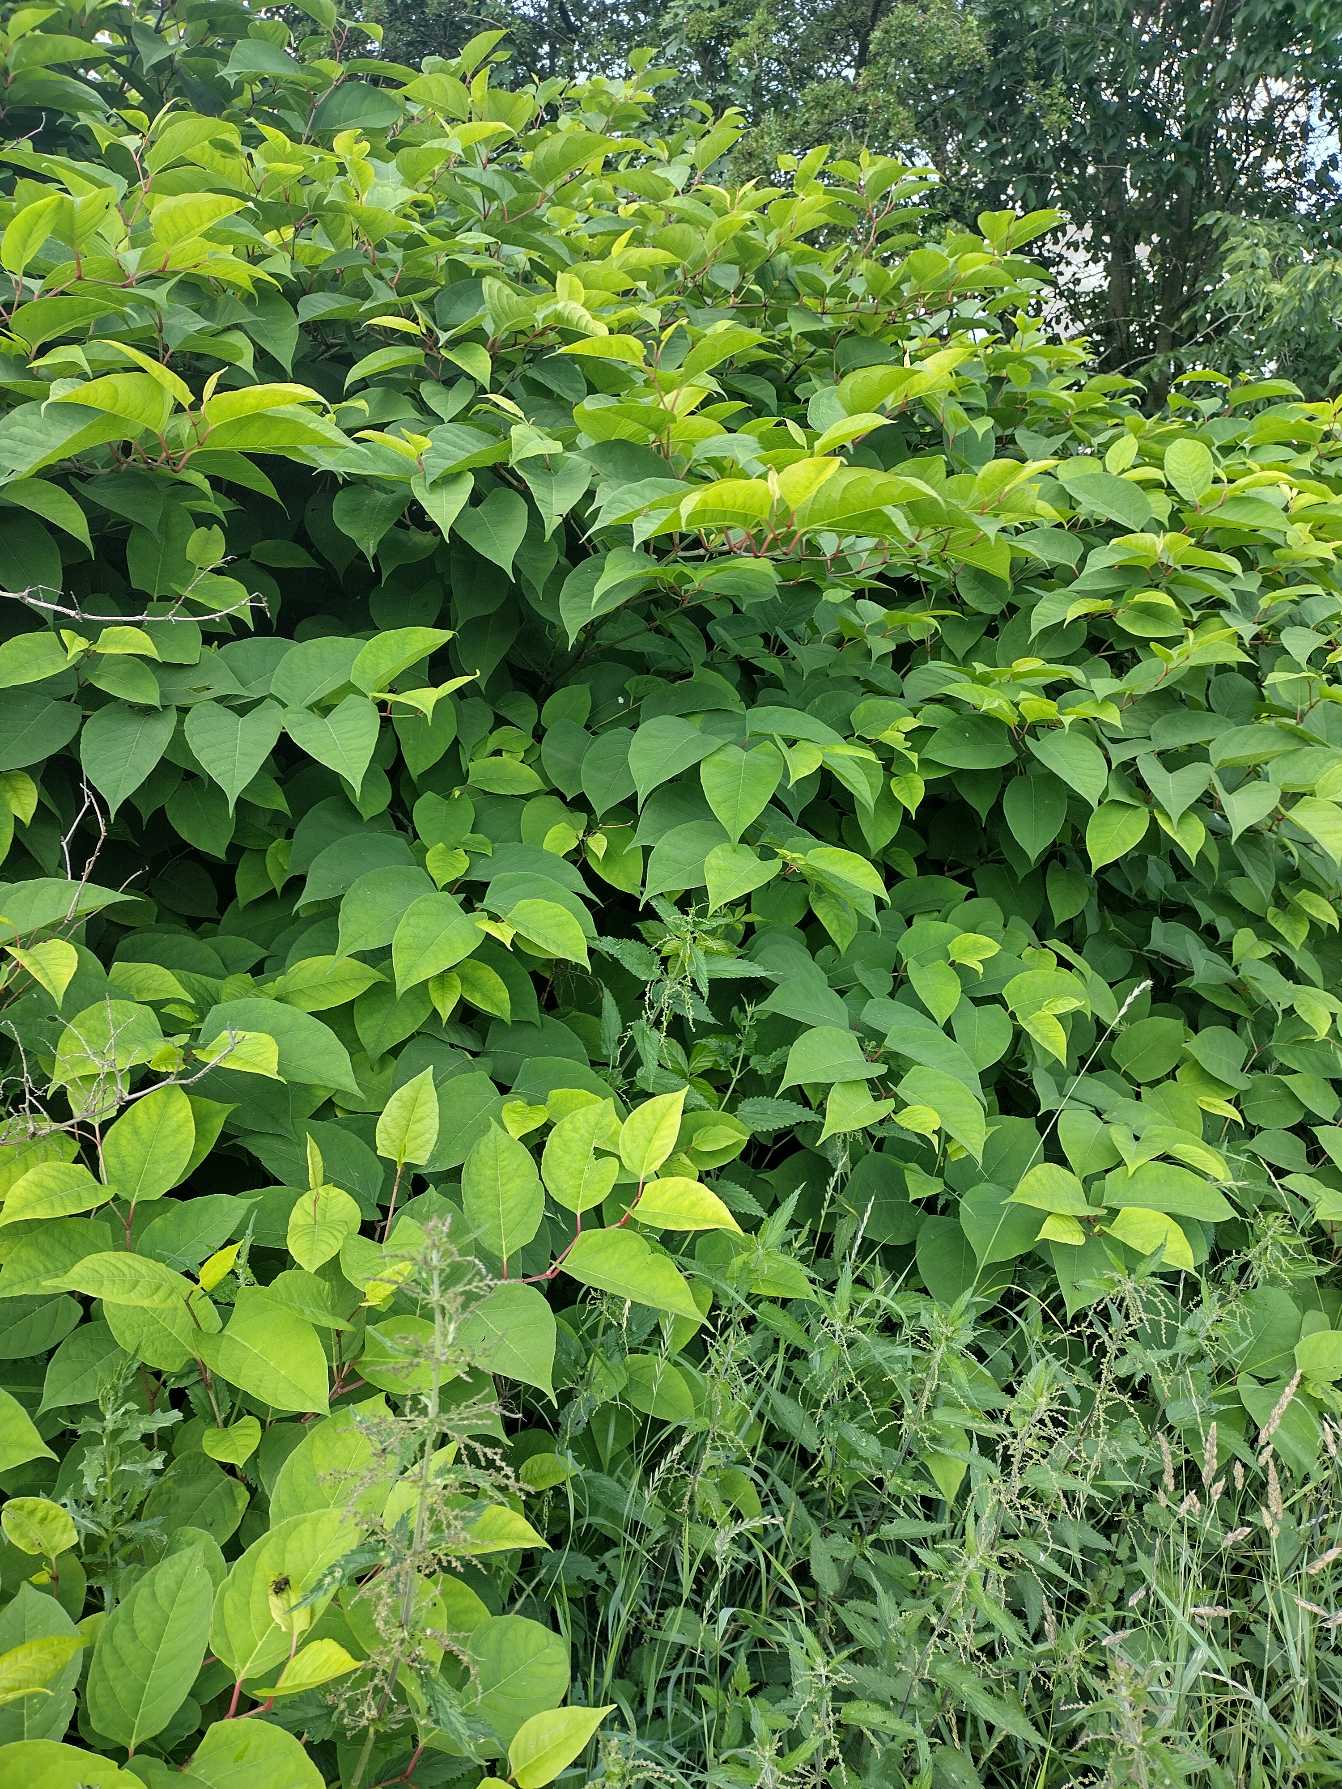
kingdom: Plantae
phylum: Tracheophyta
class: Magnoliopsida
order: Caryophyllales
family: Polygonaceae
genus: Reynoutria
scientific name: Reynoutria japonica
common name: Japan-pileurt
